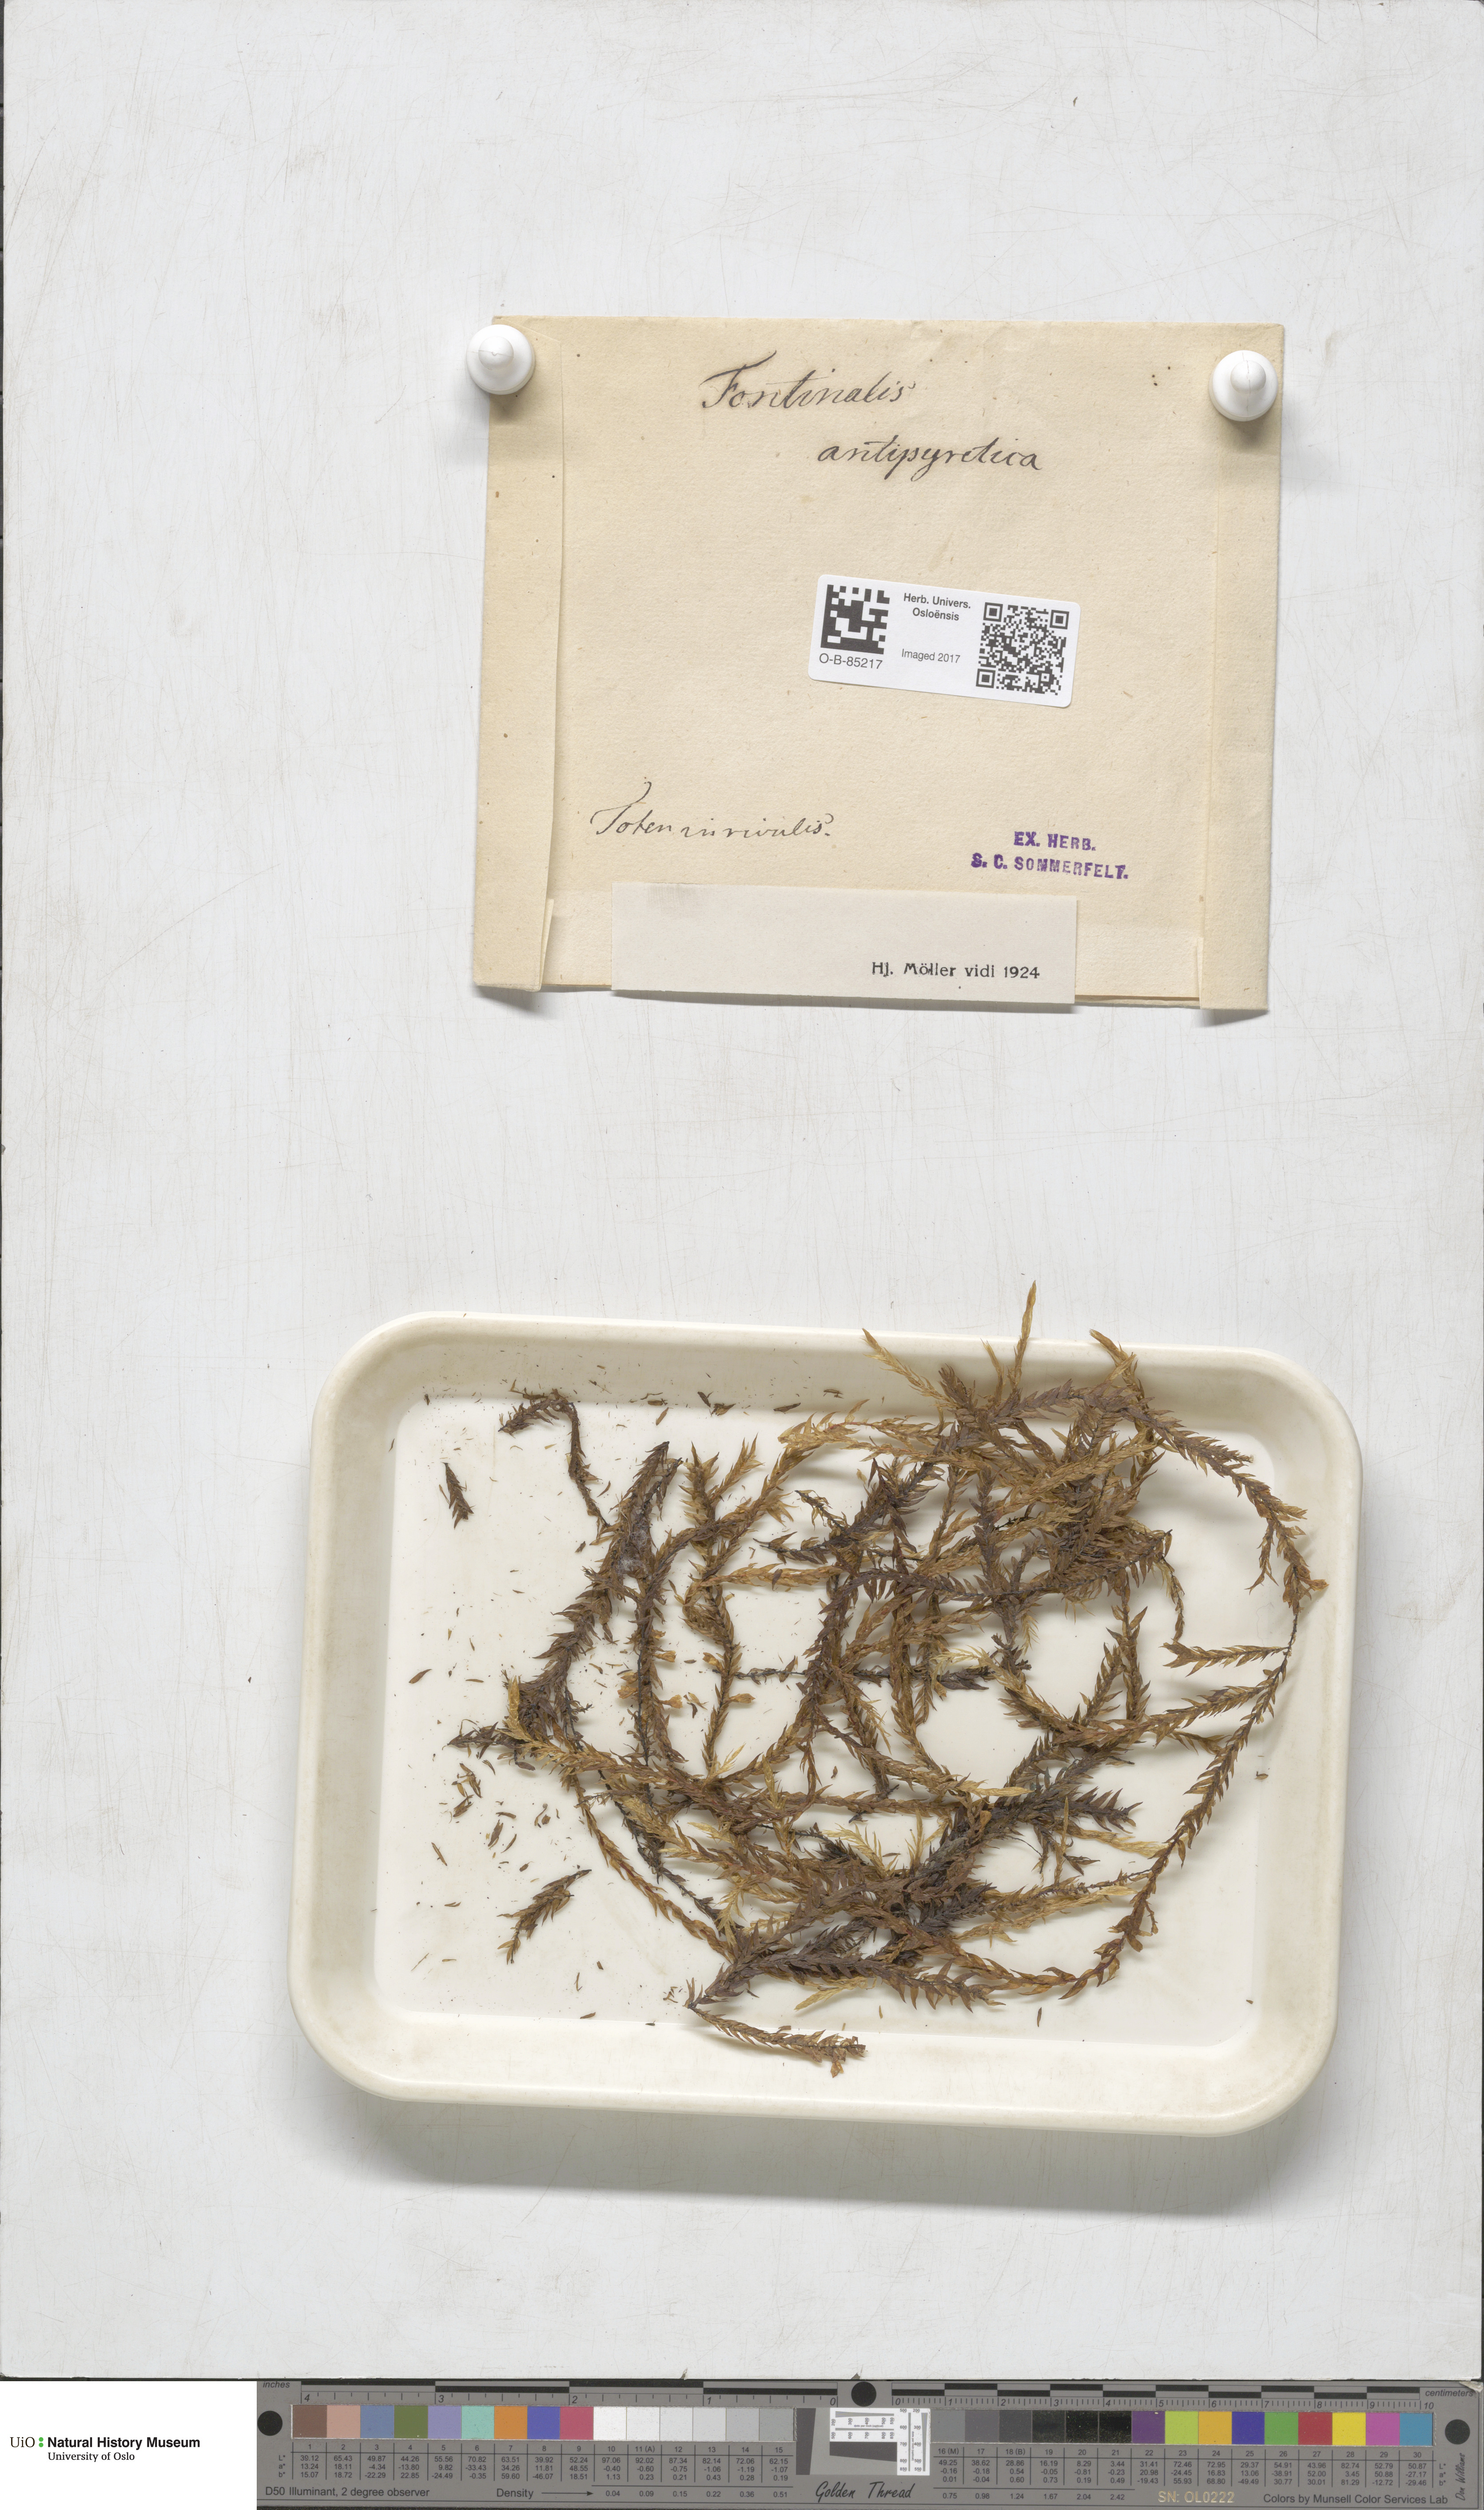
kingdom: Plantae
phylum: Bryophyta
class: Bryopsida
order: Hypnales
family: Fontinalaceae
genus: Fontinalis
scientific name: Fontinalis antipyretica
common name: Greater water-moss
